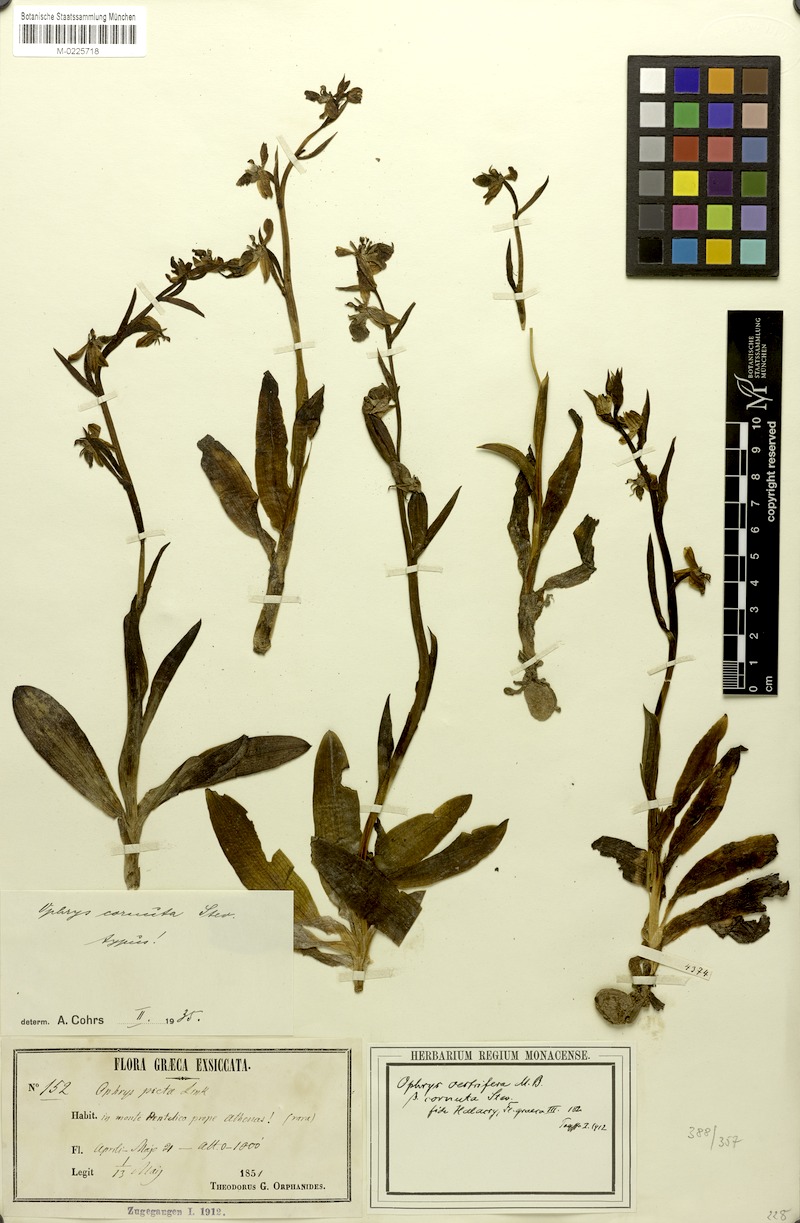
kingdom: Plantae
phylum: Tracheophyta
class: Liliopsida
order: Asparagales
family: Orchidaceae
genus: Ophrys
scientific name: Ophrys scolopax
